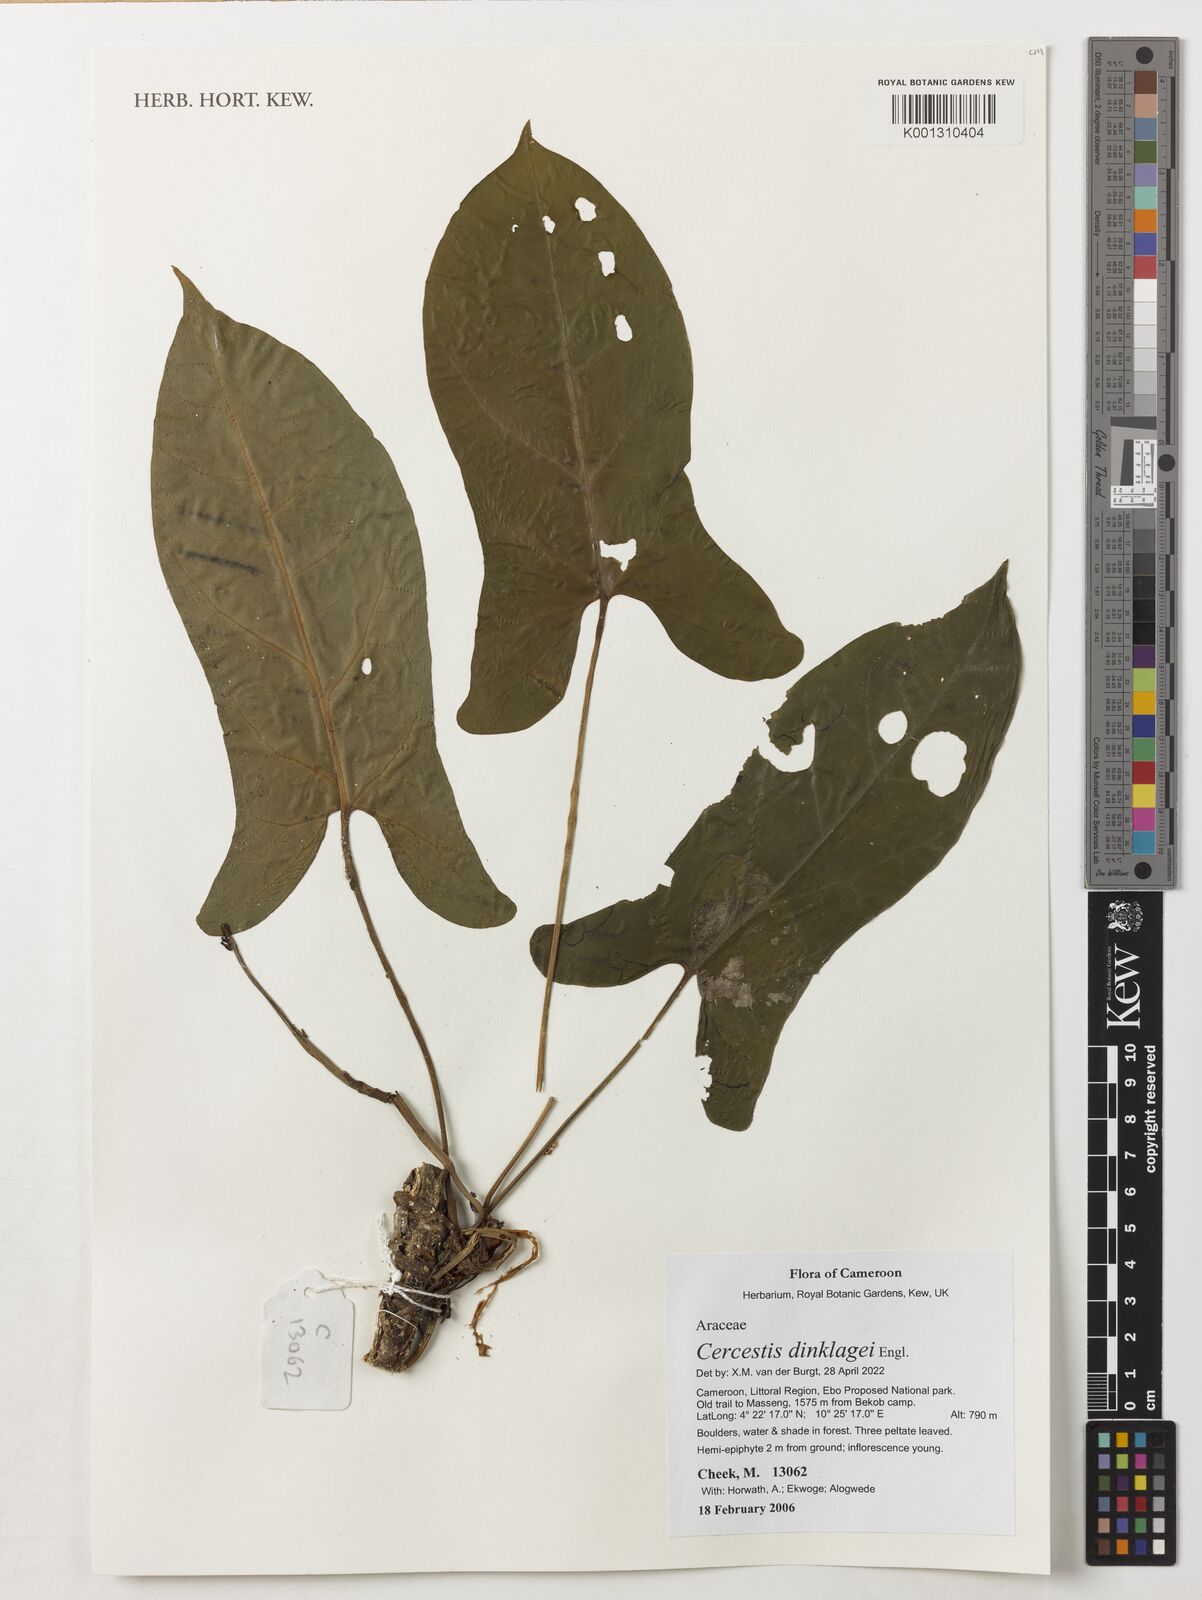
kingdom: Plantae
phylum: Tracheophyta
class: Liliopsida
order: Alismatales
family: Araceae
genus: Cercestis
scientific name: Cercestis dinklagei
